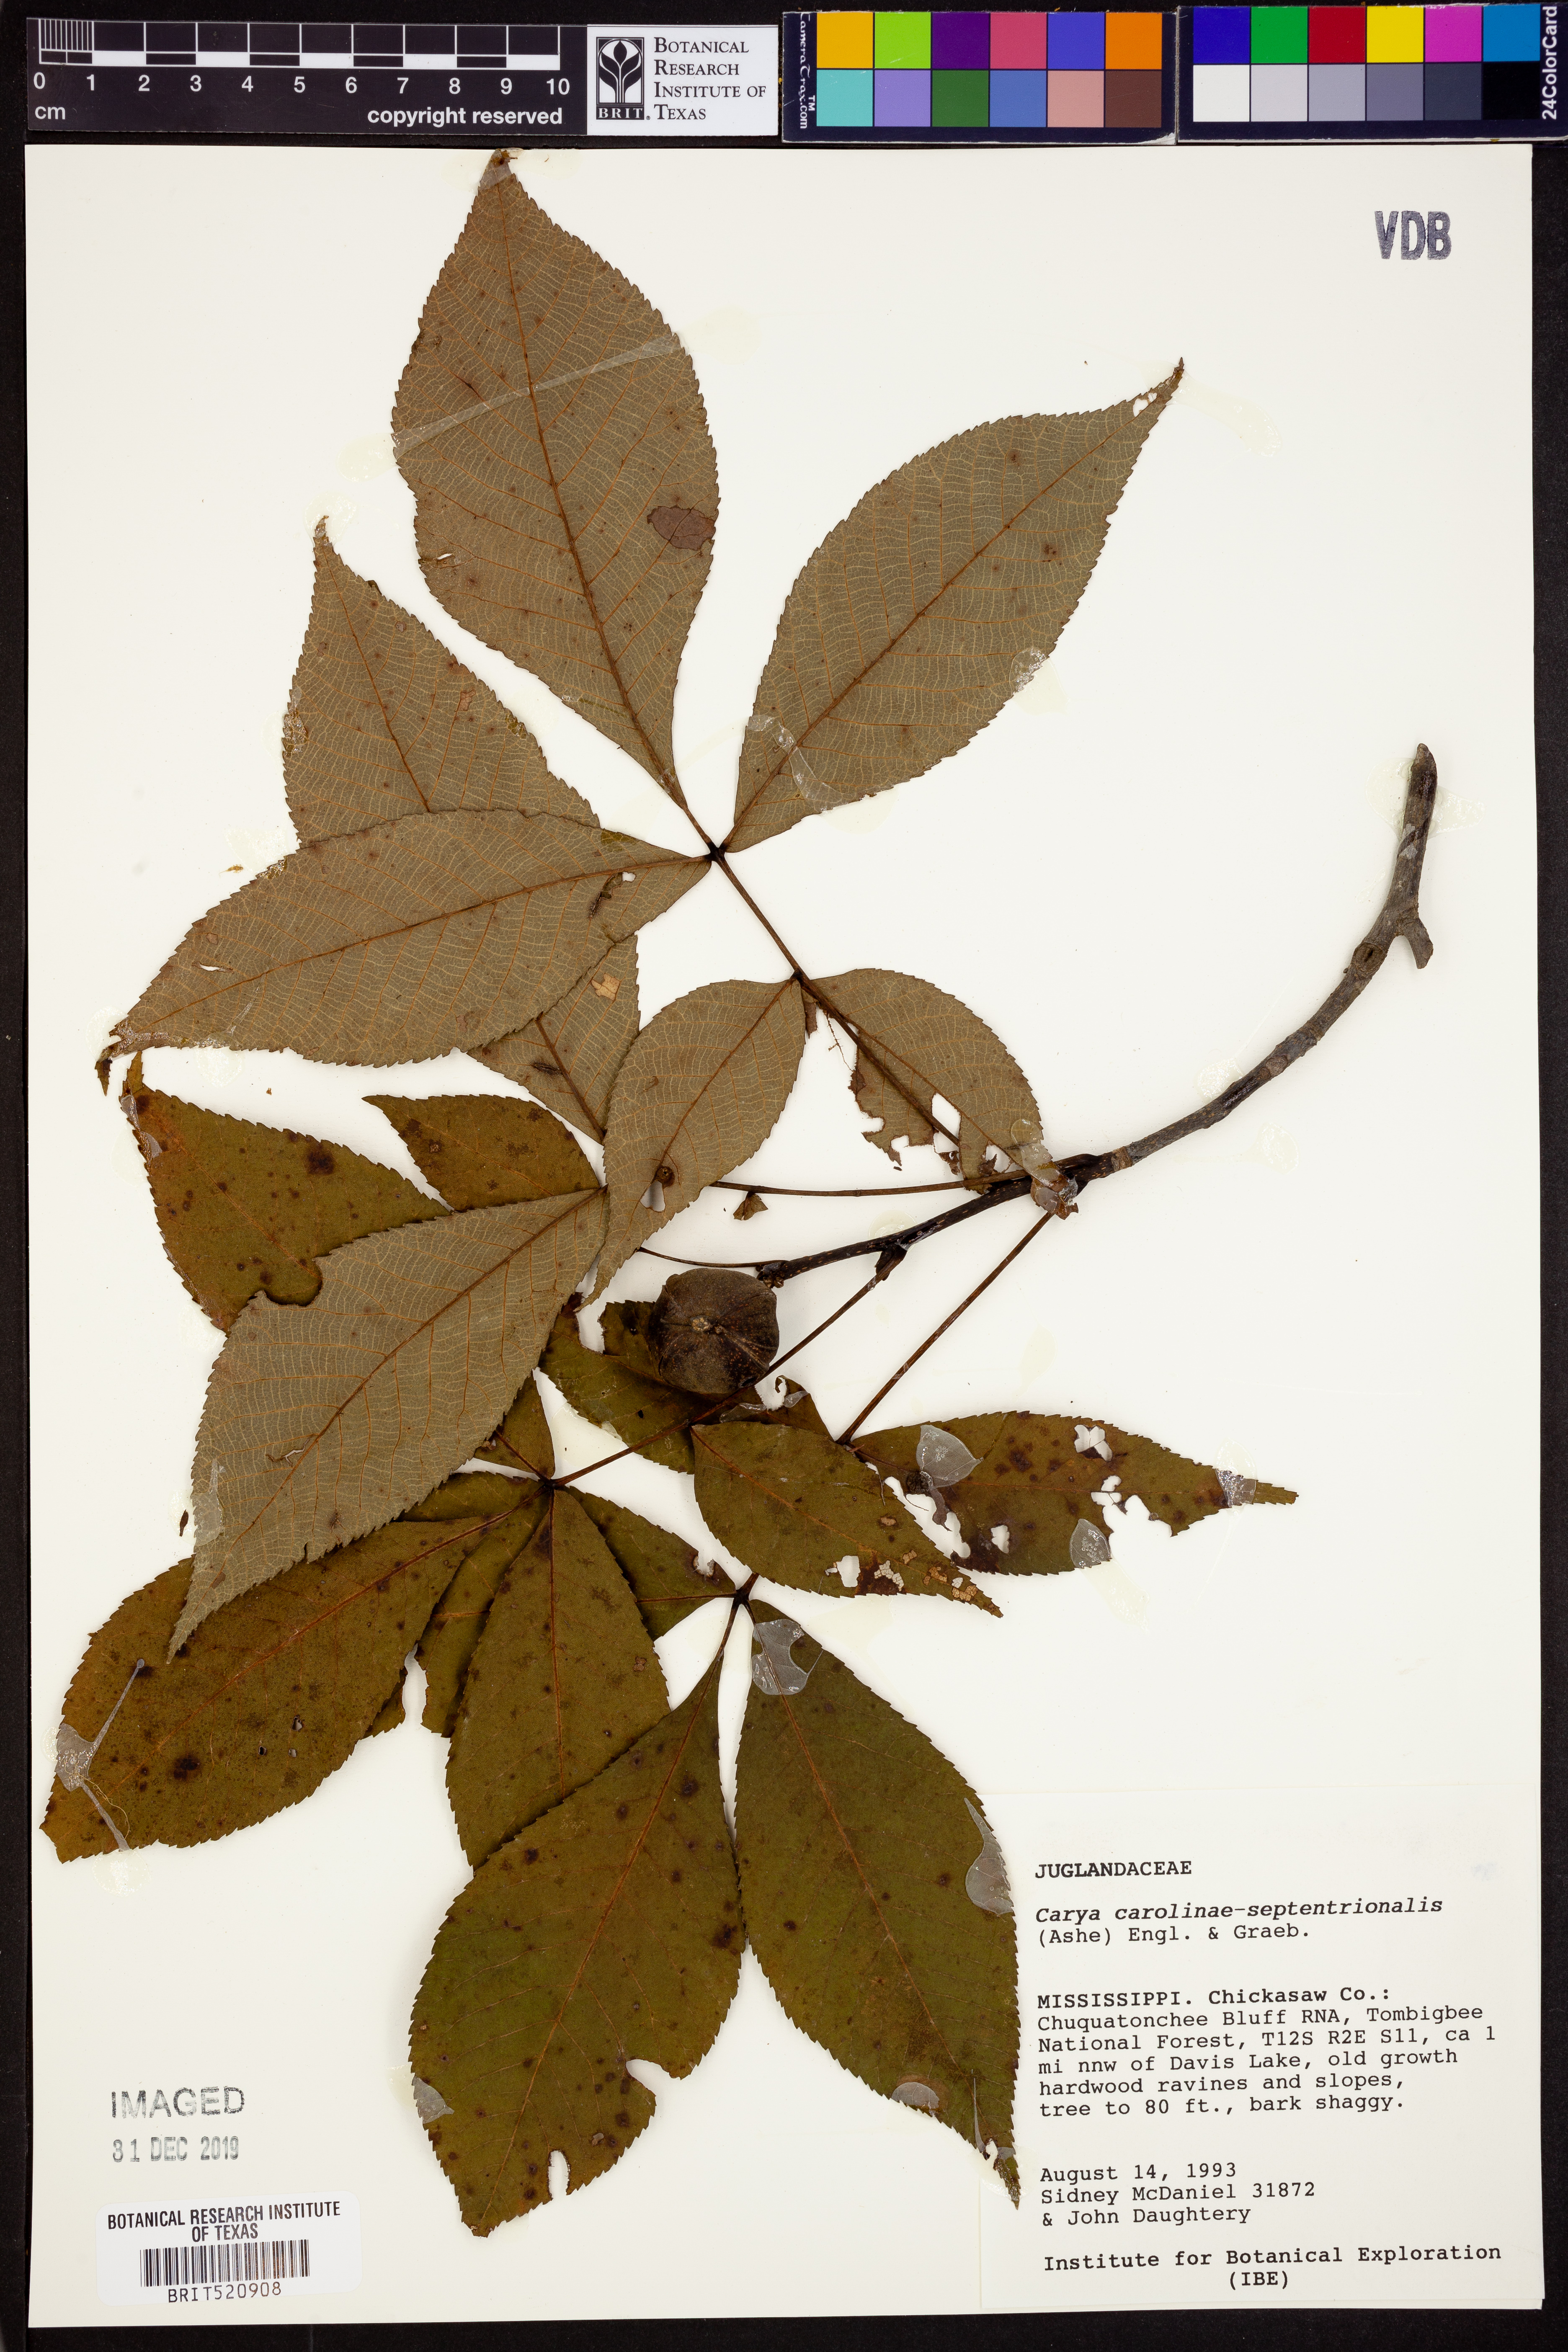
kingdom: Plantae
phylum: Tracheophyta
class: Magnoliopsida
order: Fagales
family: Juglandaceae
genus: Carya
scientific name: Carya carolinae-septentrionalis
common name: Carolina hickory
